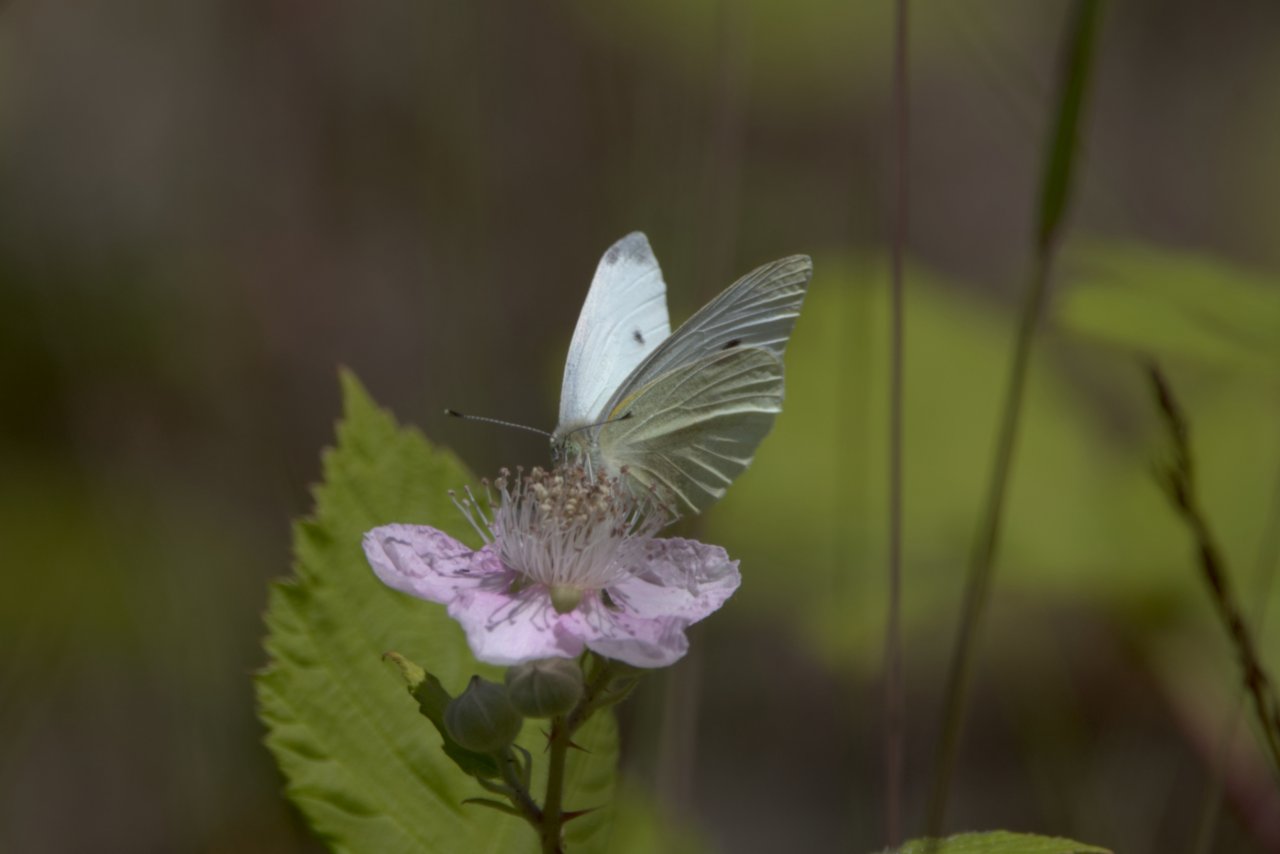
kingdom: Animalia
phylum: Arthropoda
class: Insecta
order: Lepidoptera
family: Pieridae
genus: Pieris
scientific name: Pieris rapae
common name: Cabbage White
